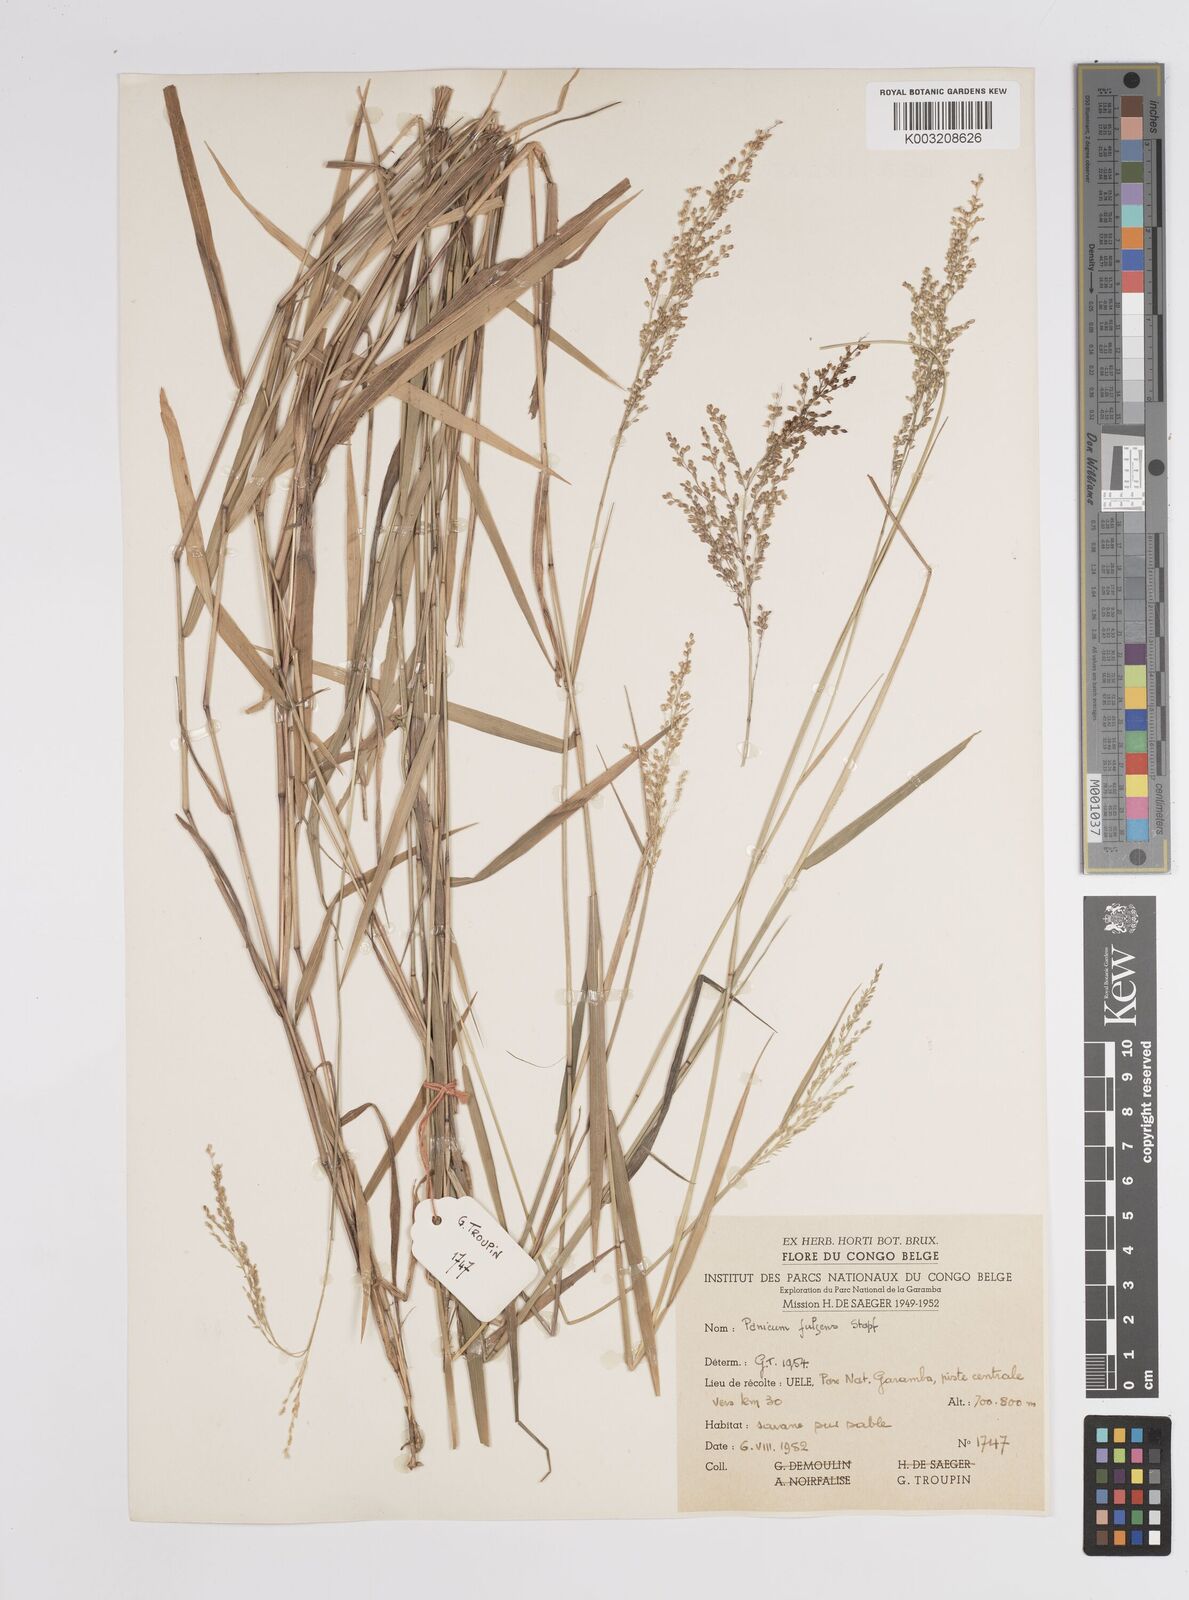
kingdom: Plantae
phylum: Tracheophyta
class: Liliopsida
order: Poales
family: Poaceae
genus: Trichanthecium
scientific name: Trichanthecium nervatum
